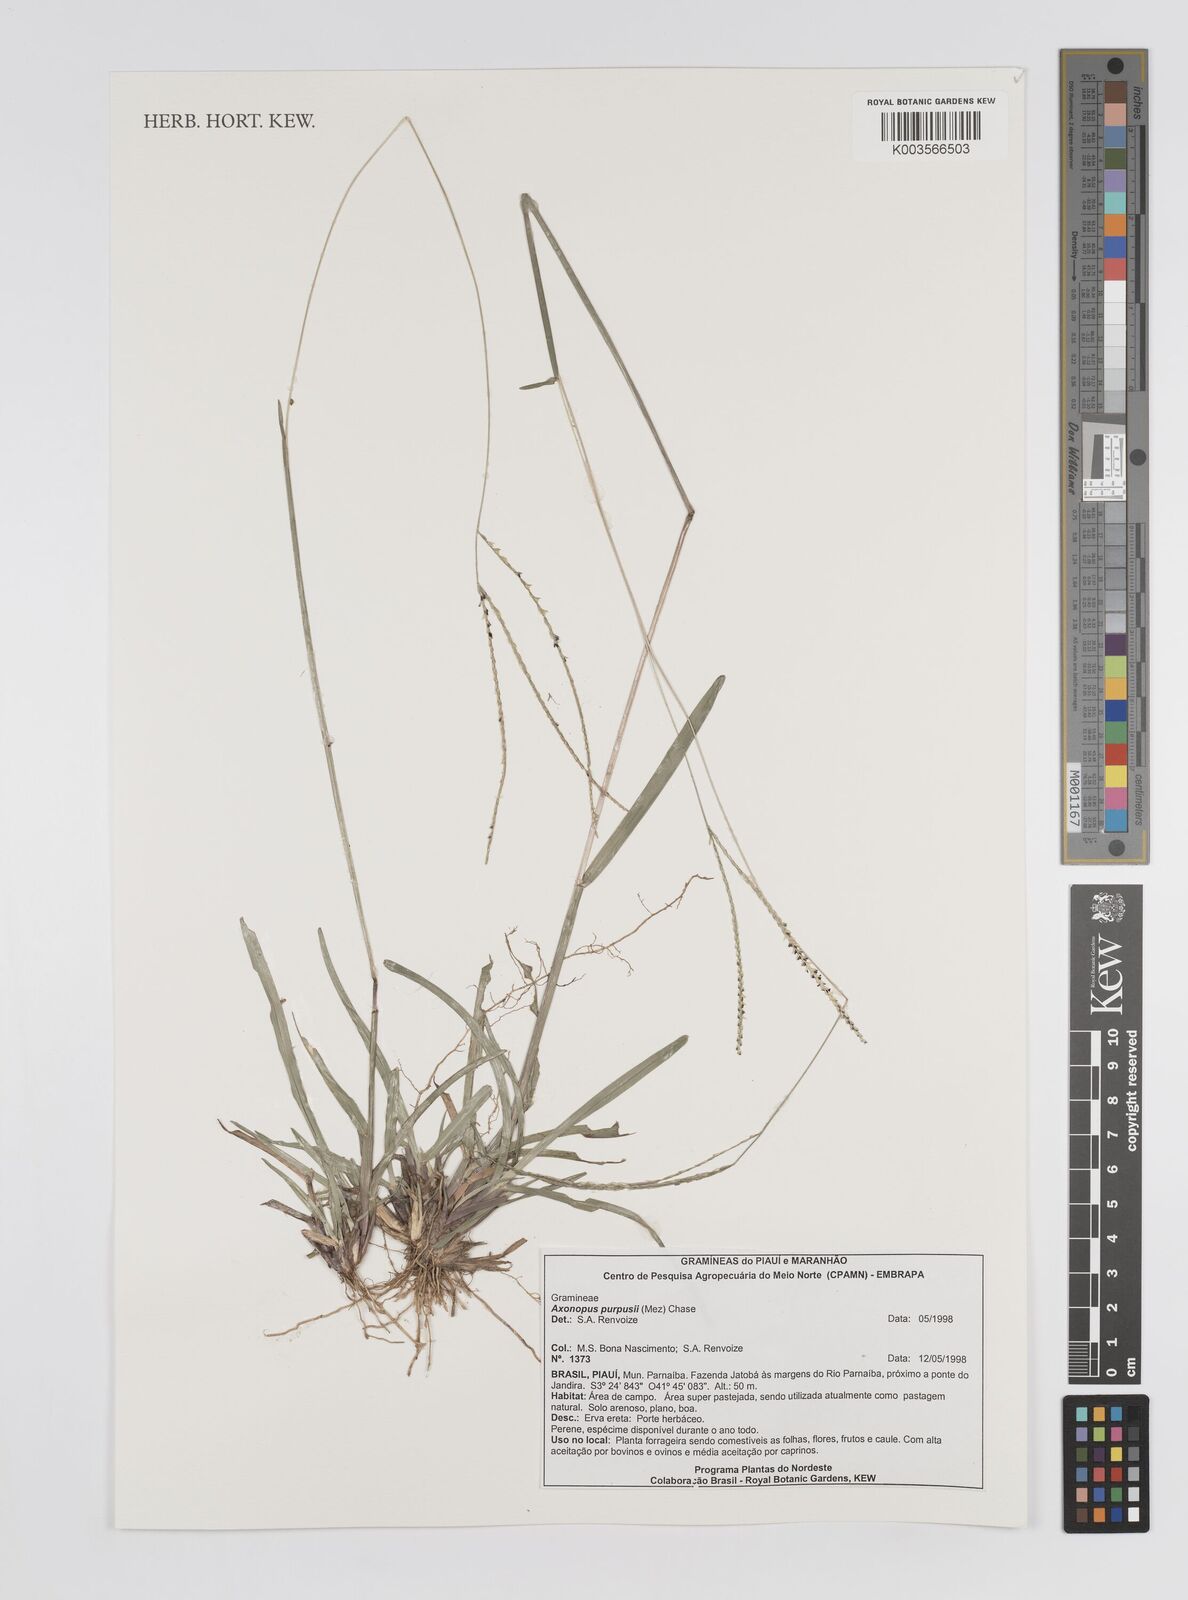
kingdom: Plantae
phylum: Tracheophyta
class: Liliopsida
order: Poales
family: Poaceae
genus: Axonopus
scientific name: Axonopus purpusii
